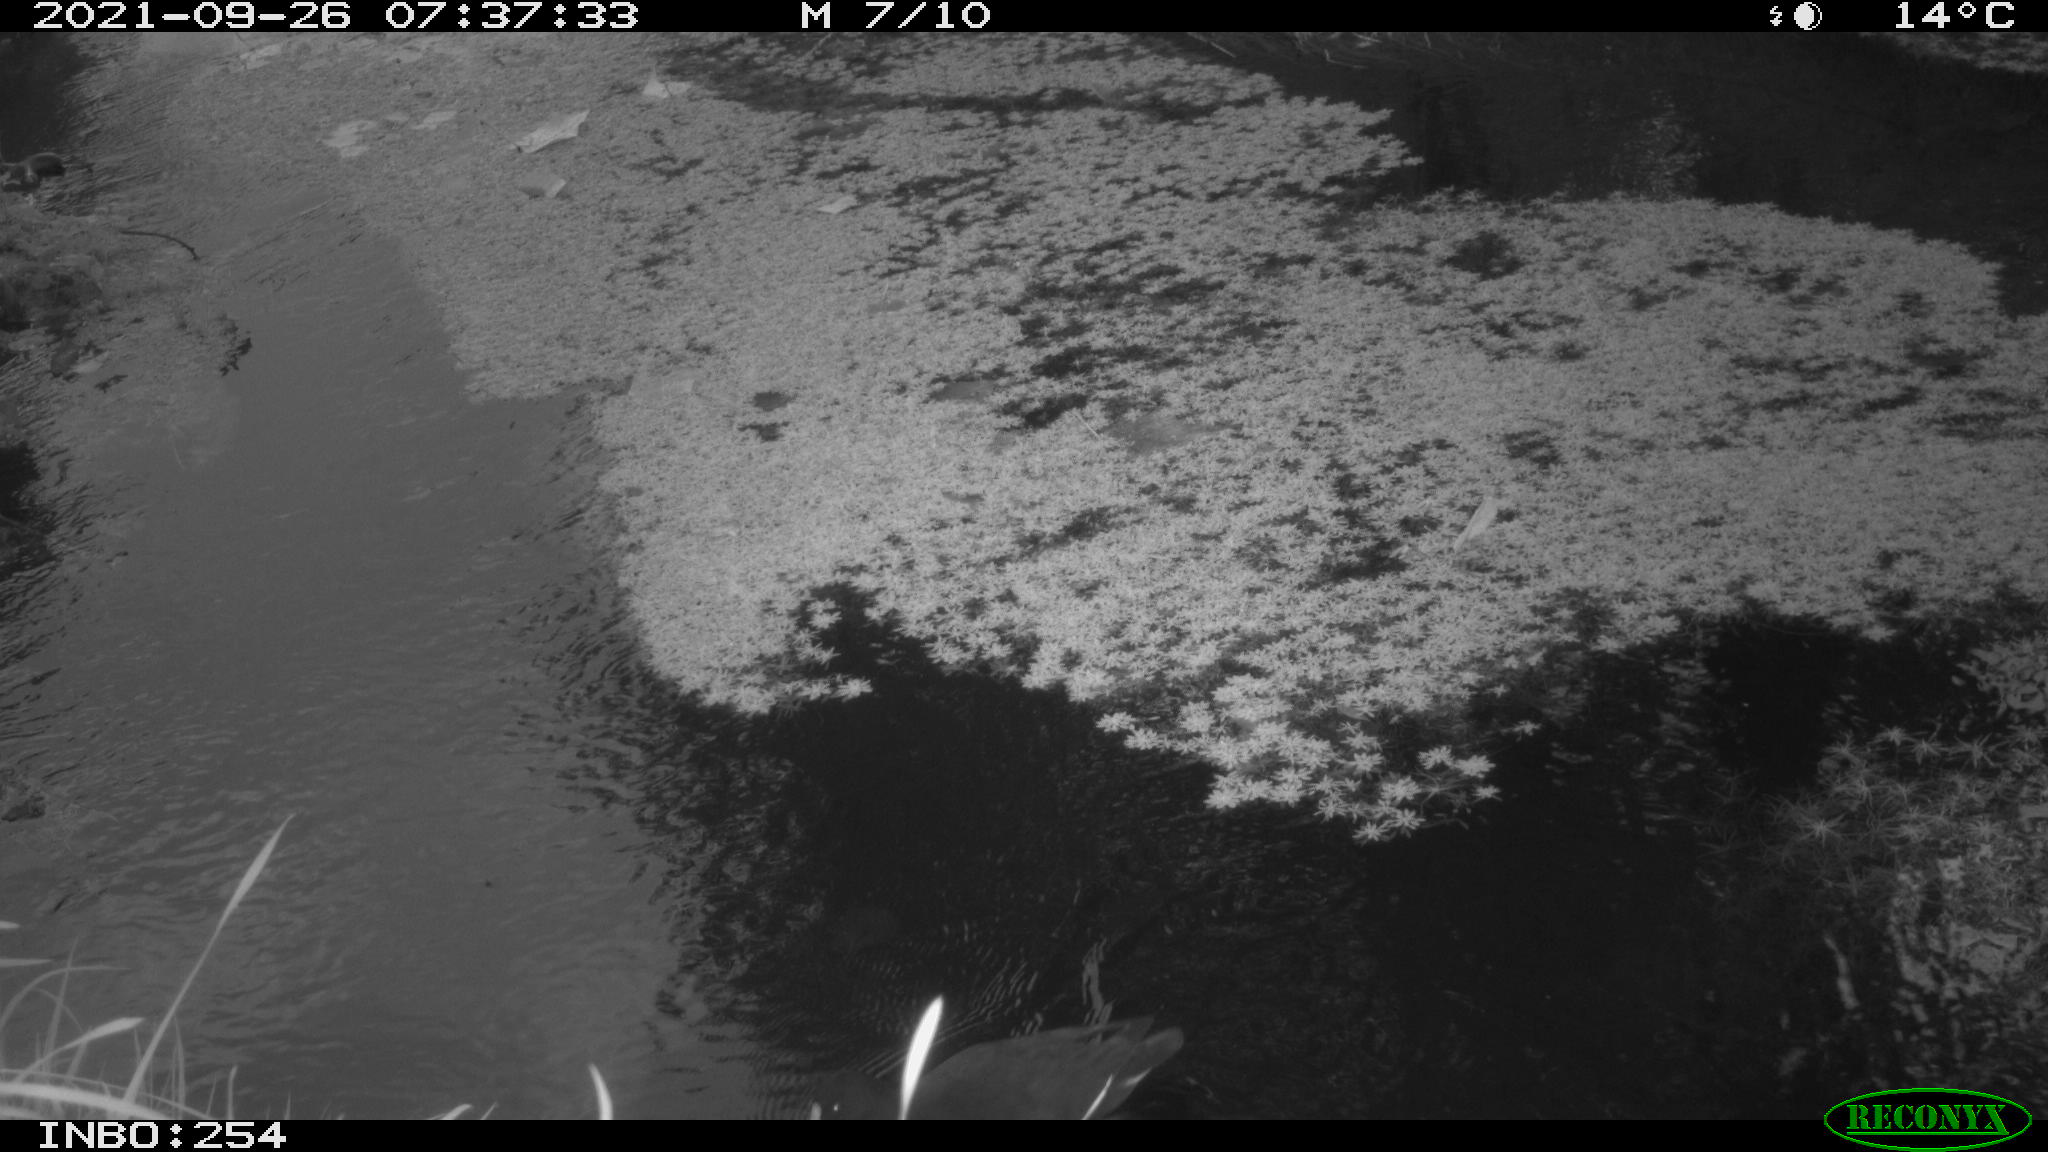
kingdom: Animalia
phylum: Chordata
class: Aves
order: Gruiformes
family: Rallidae
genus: Gallinula
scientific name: Gallinula chloropus
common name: Common moorhen
